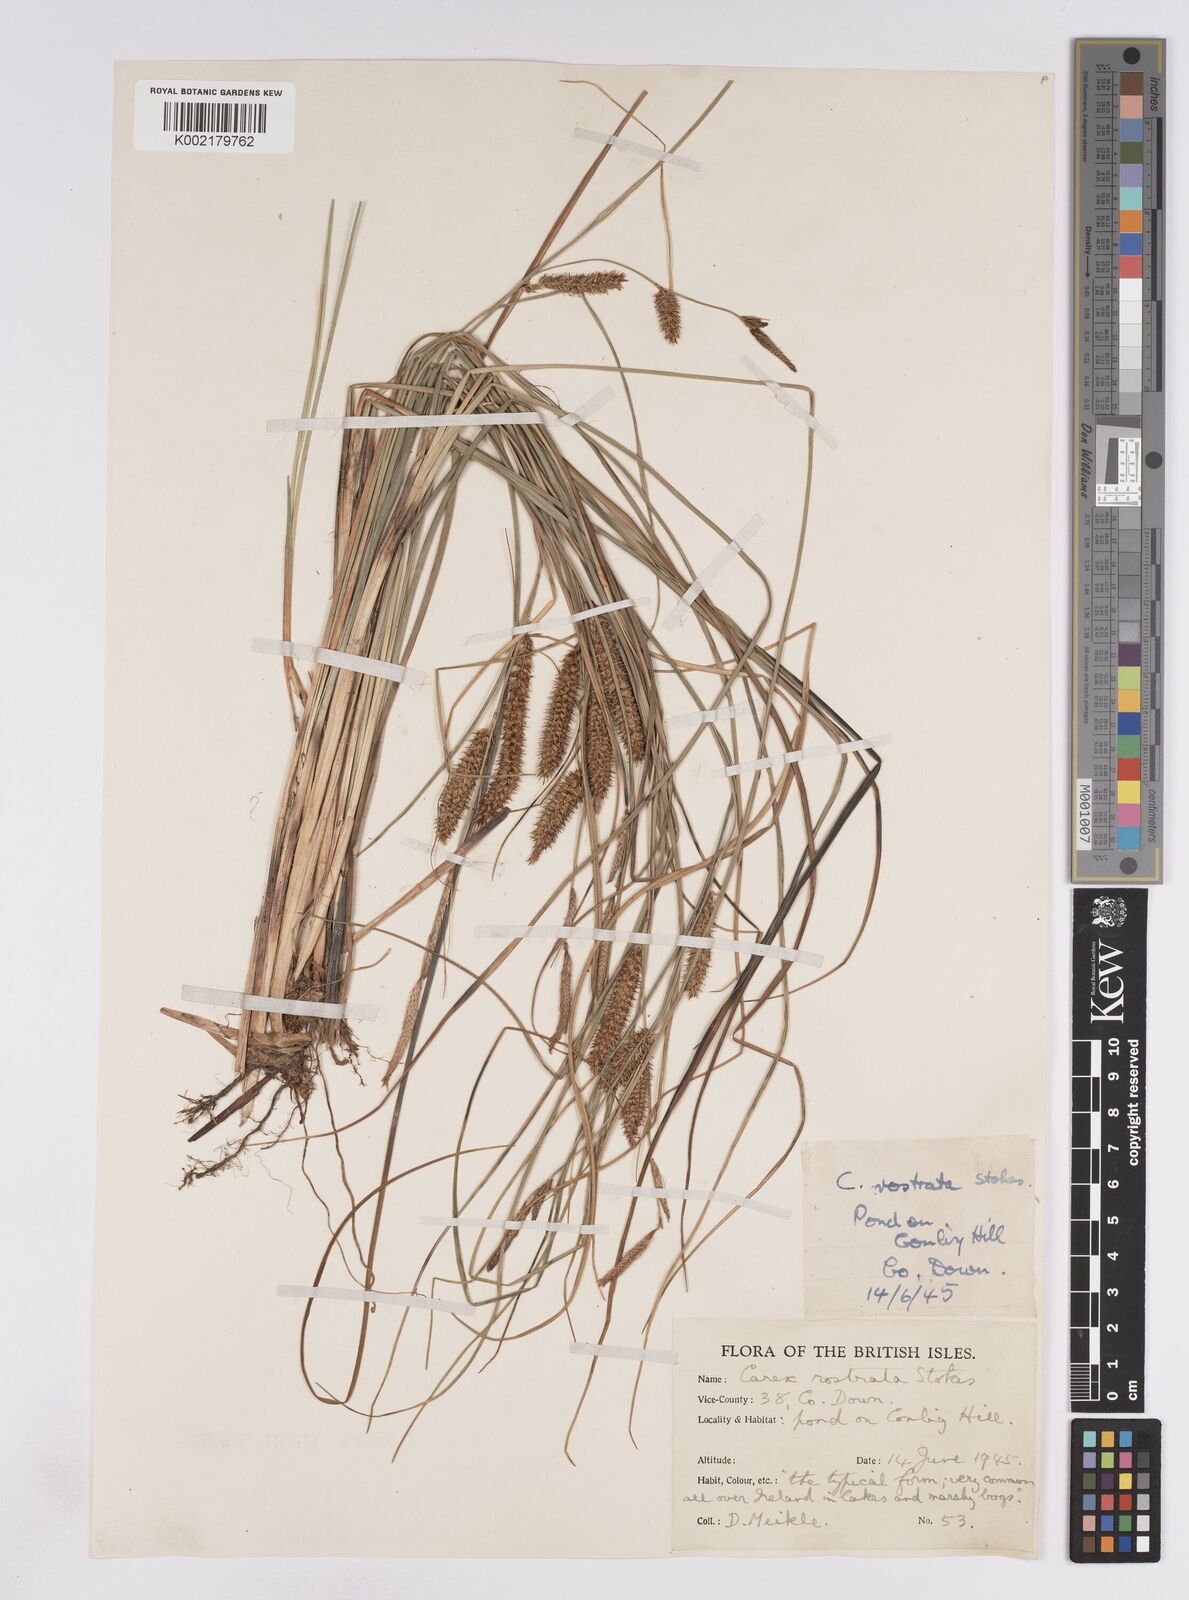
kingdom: Plantae
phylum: Tracheophyta
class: Liliopsida
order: Poales
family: Cyperaceae
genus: Carex
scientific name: Carex rostrata
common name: Bottle sedge
